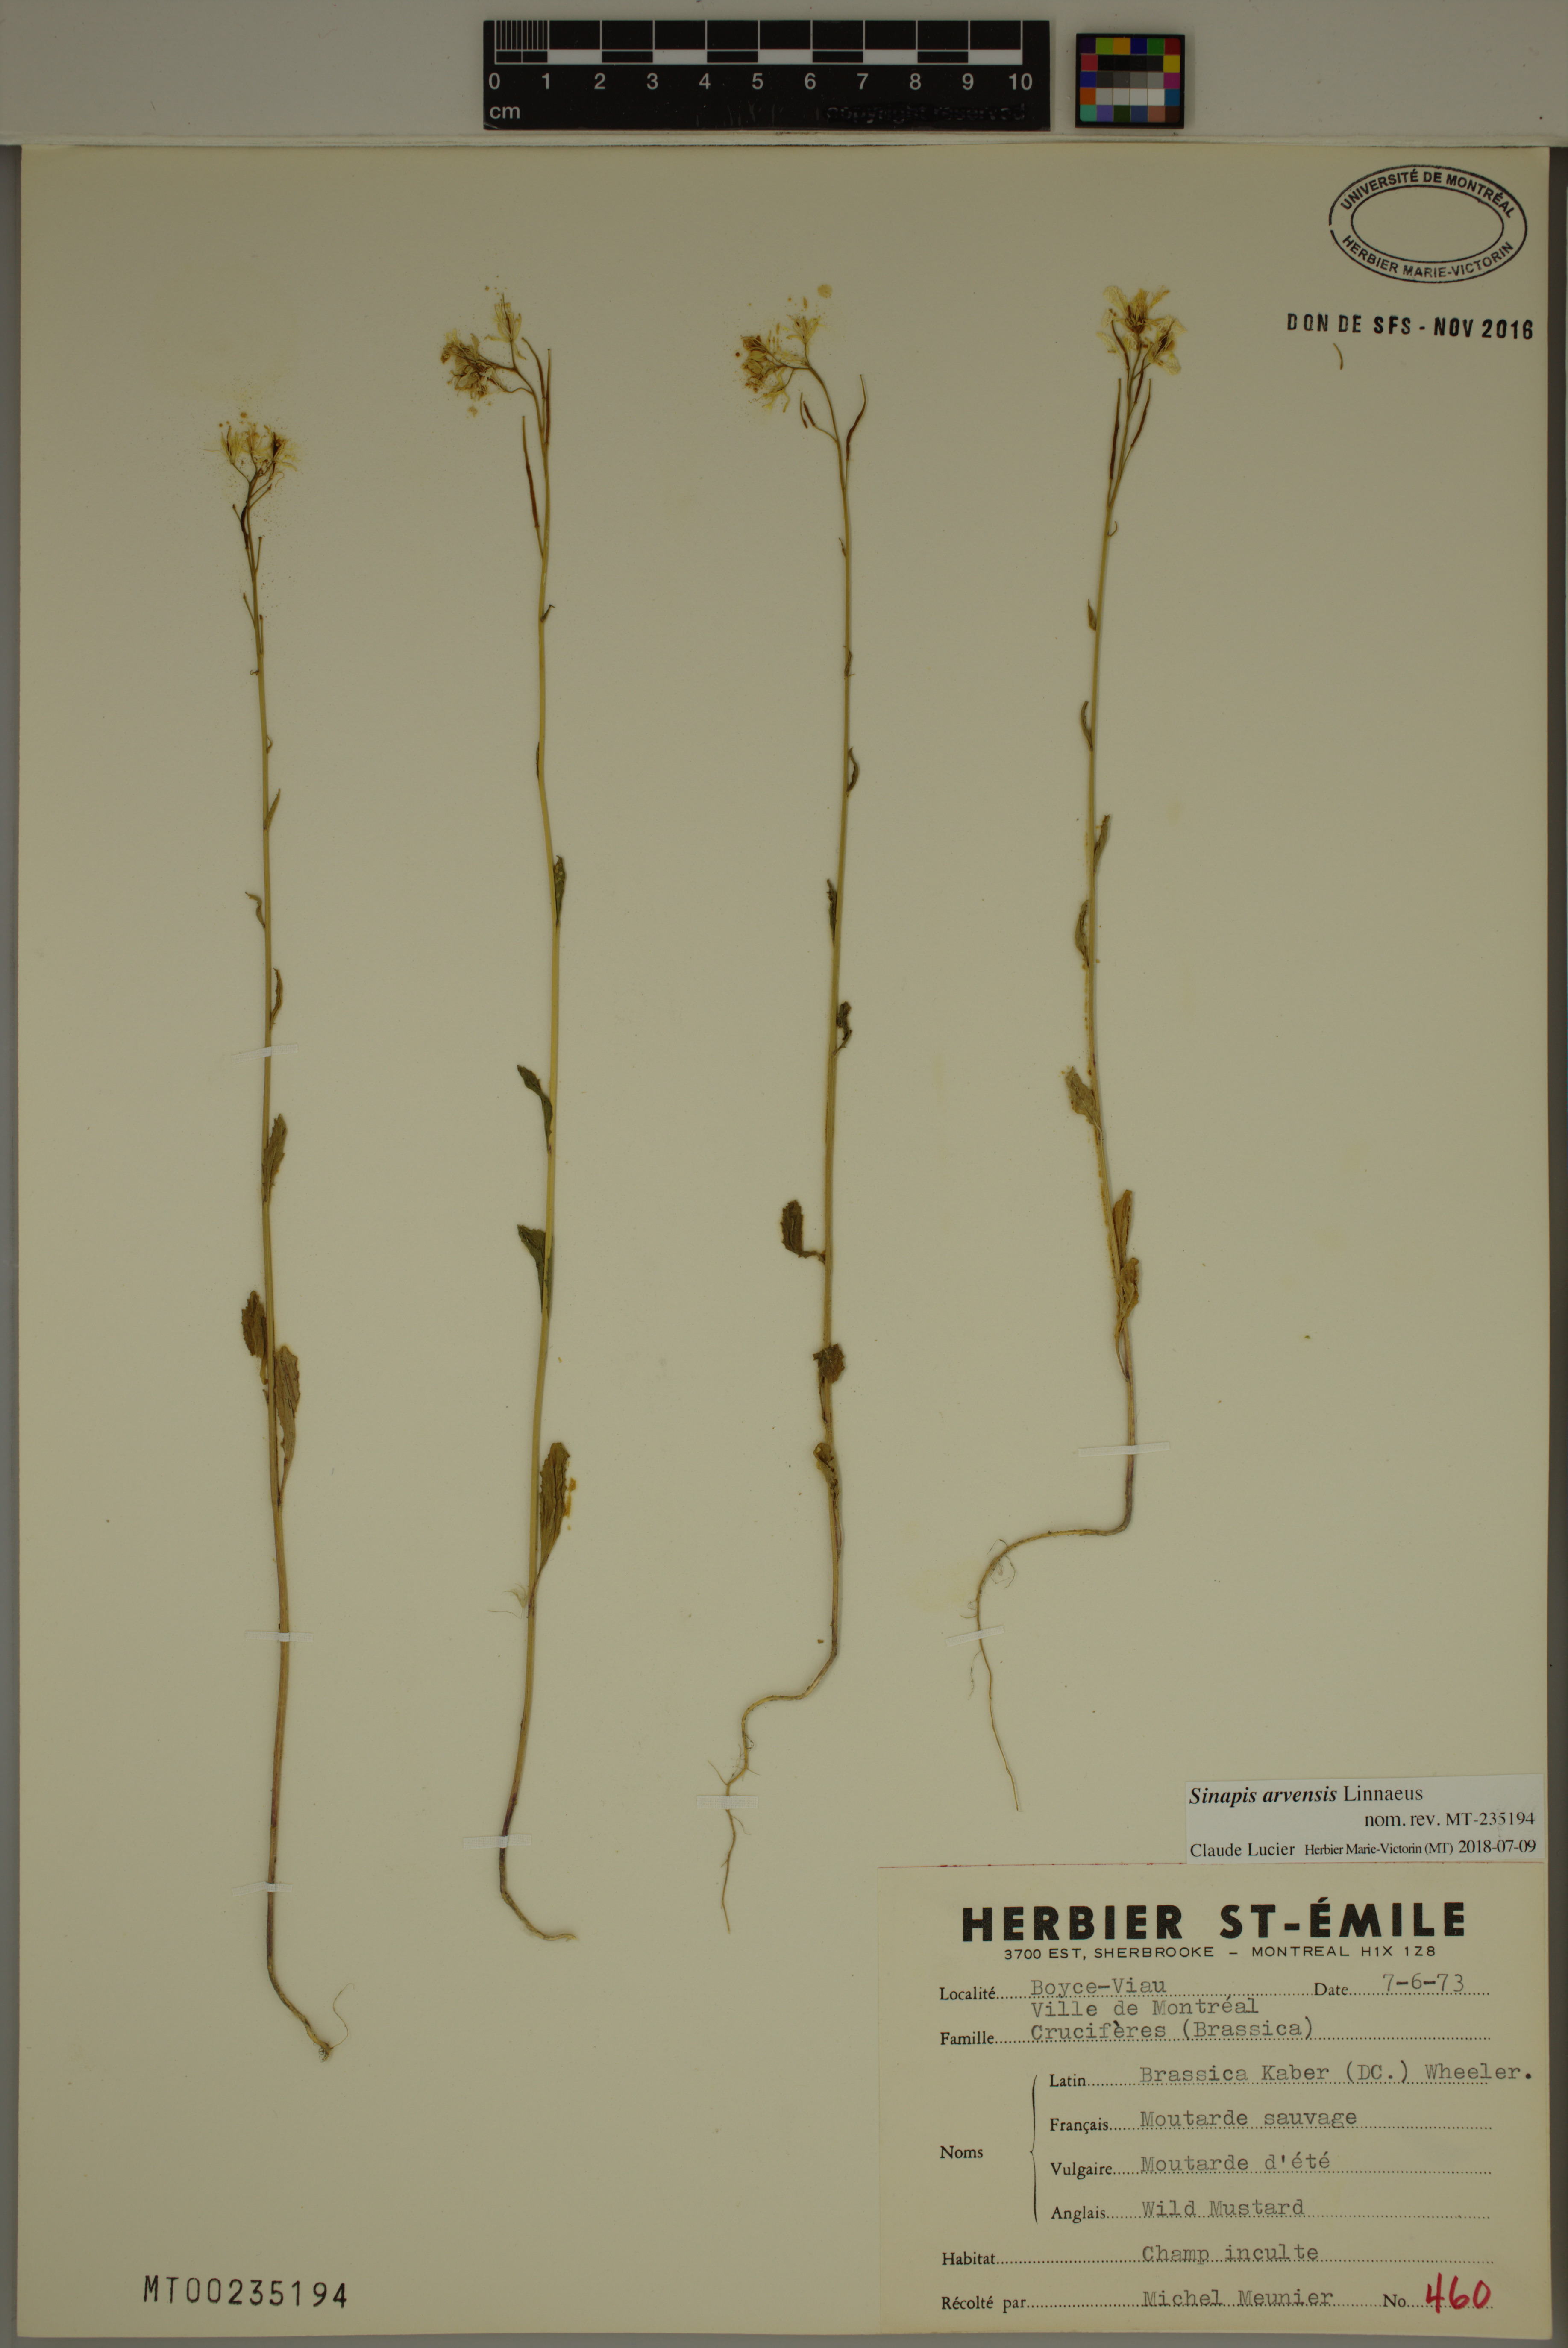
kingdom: Plantae
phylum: Tracheophyta
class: Magnoliopsida
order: Brassicales
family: Brassicaceae
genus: Sinapis
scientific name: Sinapis arvensis
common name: Charlock
